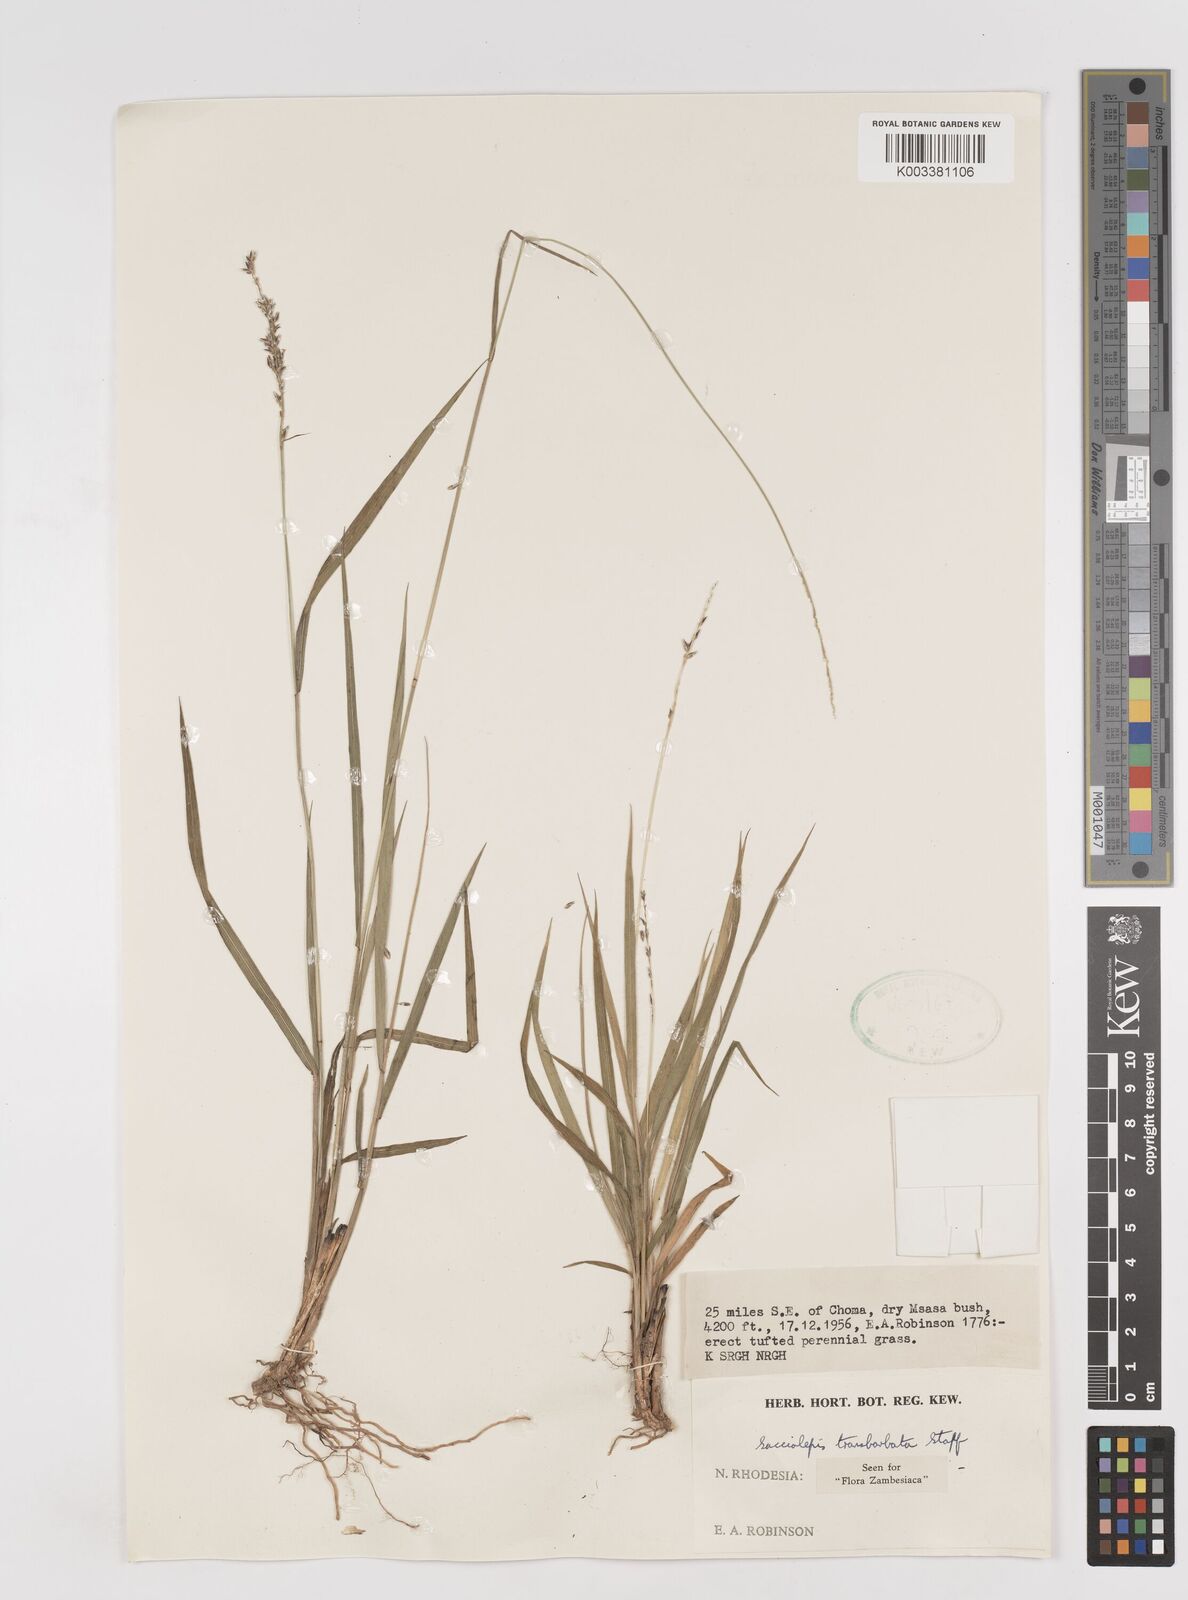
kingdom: Plantae
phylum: Tracheophyta
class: Liliopsida
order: Poales
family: Poaceae
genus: Sacciolepis
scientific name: Sacciolepis transbarbata
